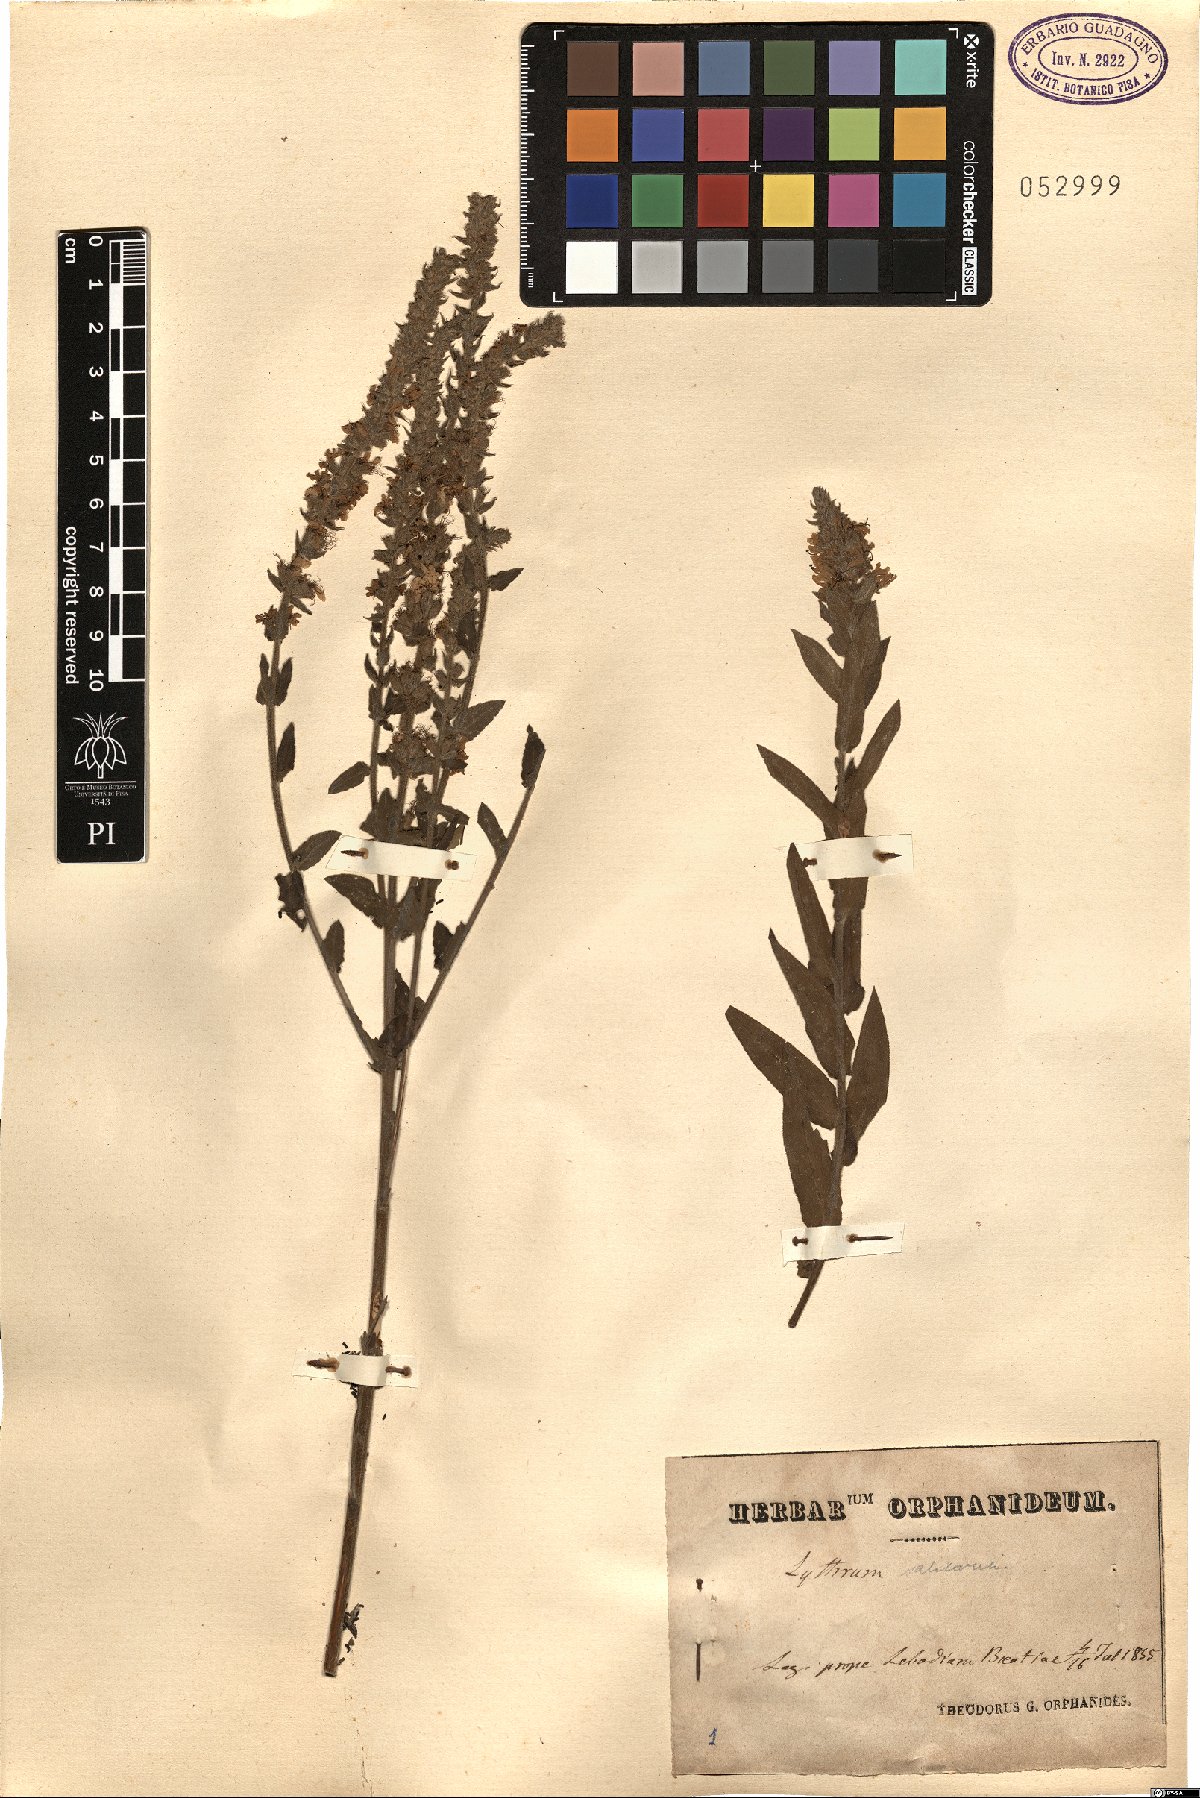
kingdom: Plantae
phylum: Tracheophyta
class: Magnoliopsida
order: Myrtales
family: Lythraceae
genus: Lythrum
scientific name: Lythrum salicaria
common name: Purple loosestrife
